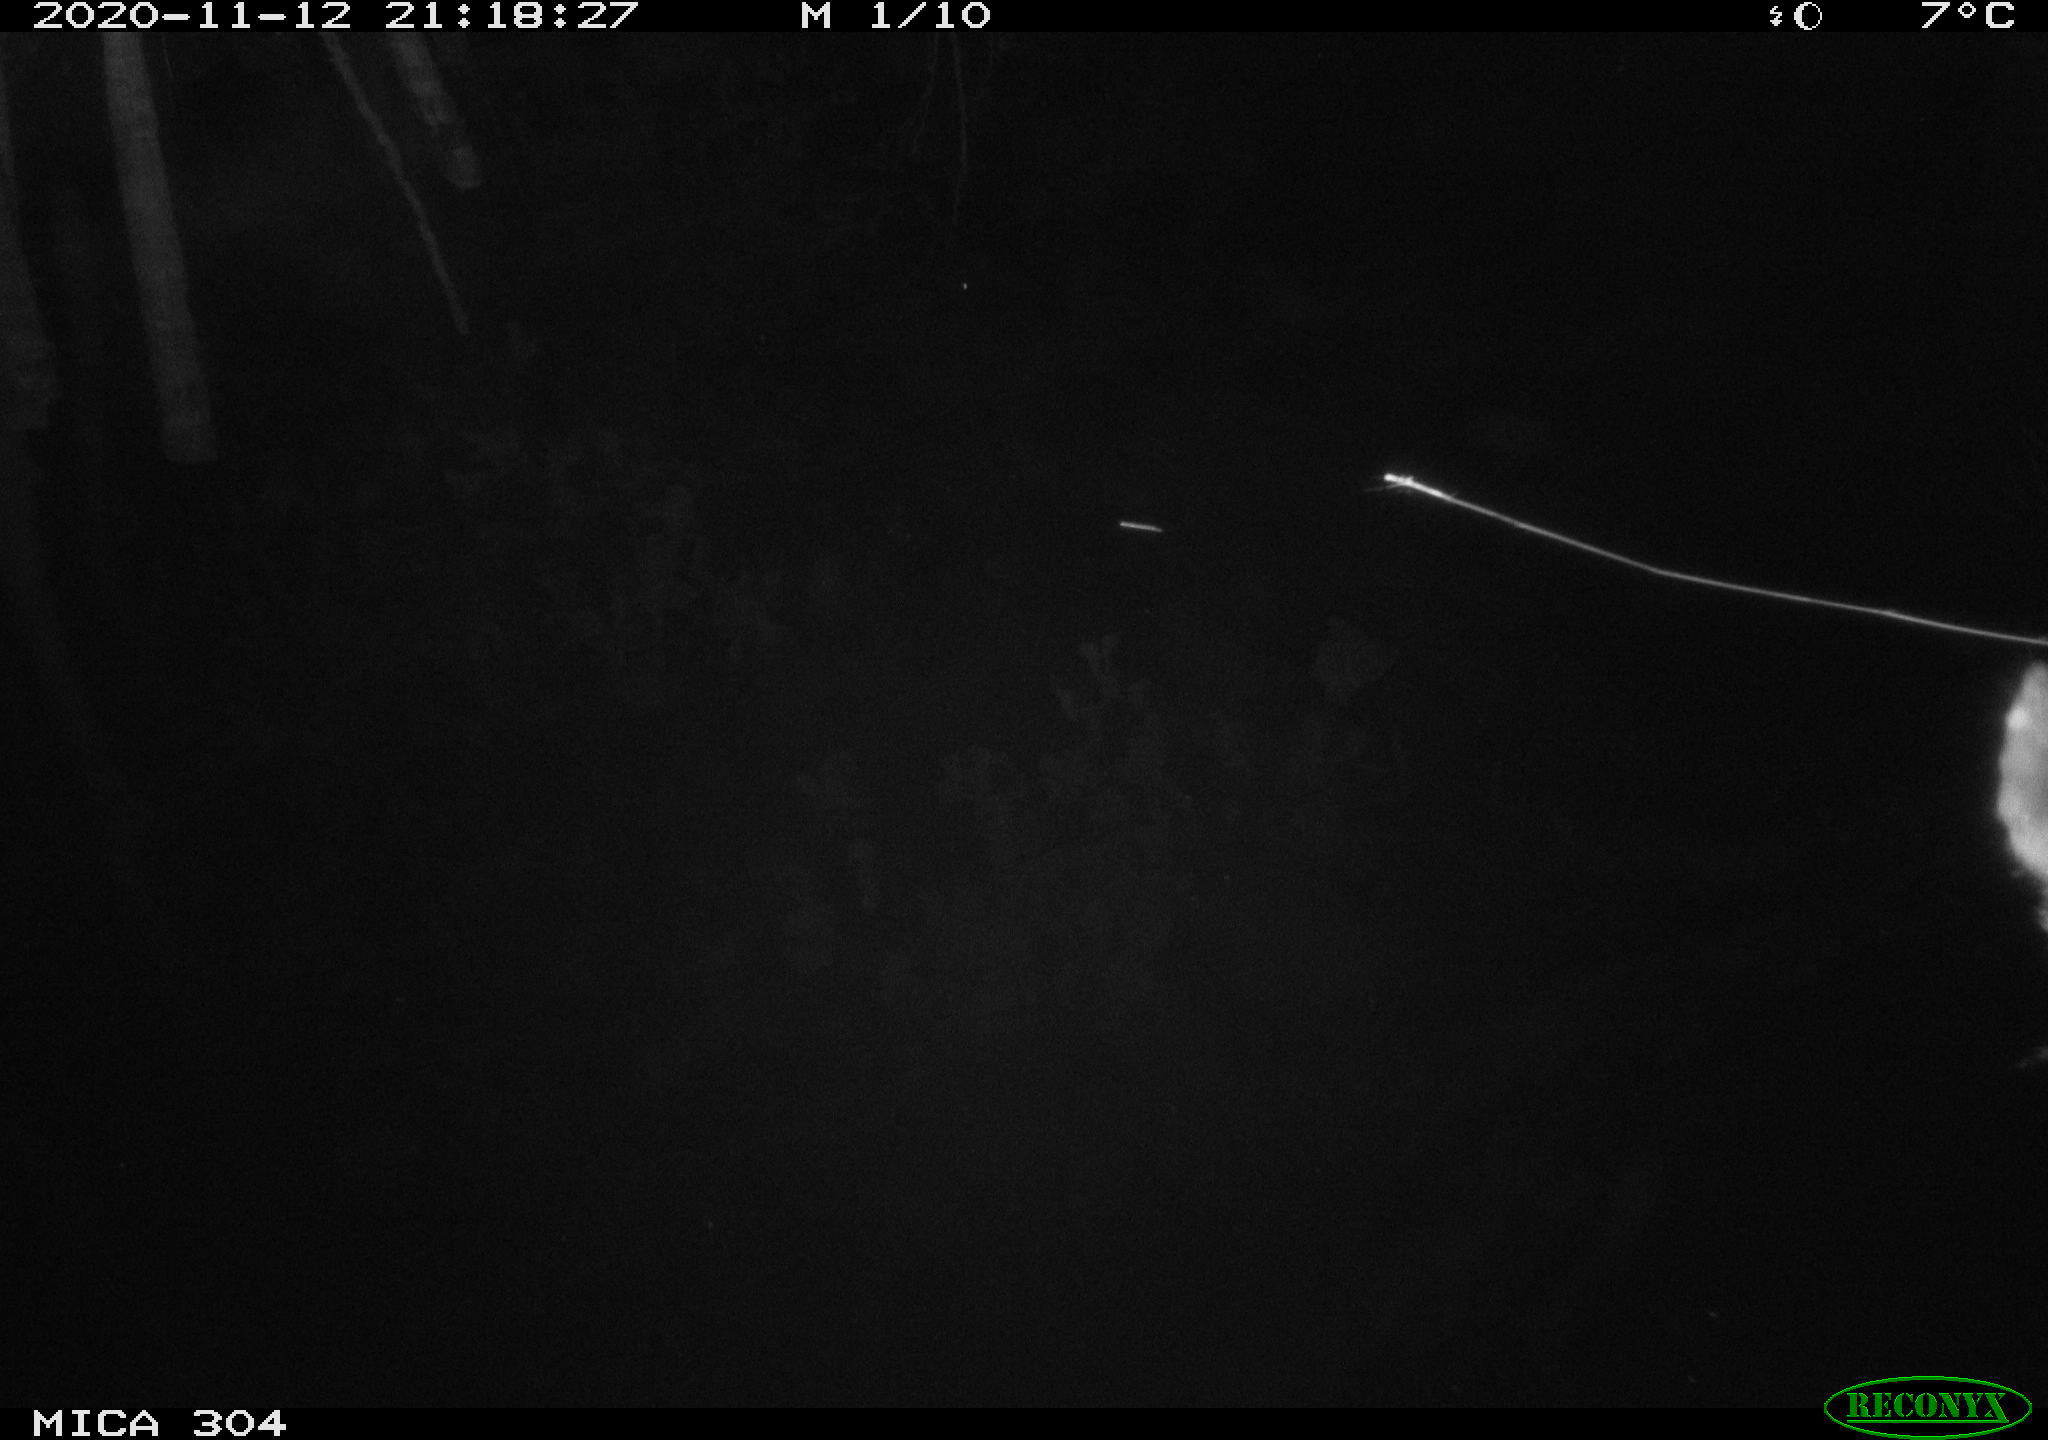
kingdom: Animalia
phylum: Chordata
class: Mammalia
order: Rodentia
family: Muridae
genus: Rattus
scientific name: Rattus norvegicus
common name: Brown rat
